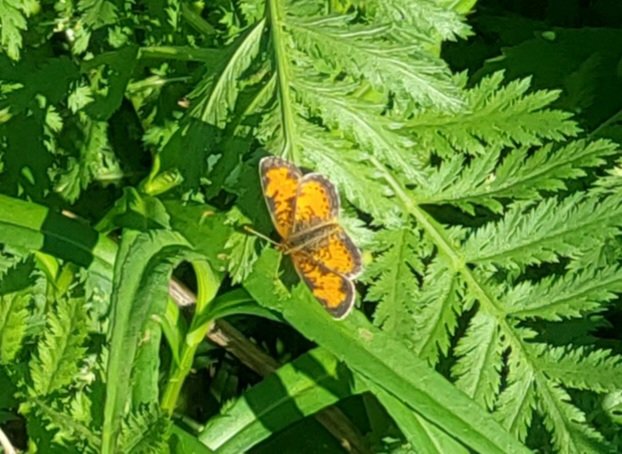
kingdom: Animalia
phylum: Arthropoda
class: Insecta
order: Lepidoptera
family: Nymphalidae
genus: Phyciodes
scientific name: Phyciodes tharos
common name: Northern Crescent
